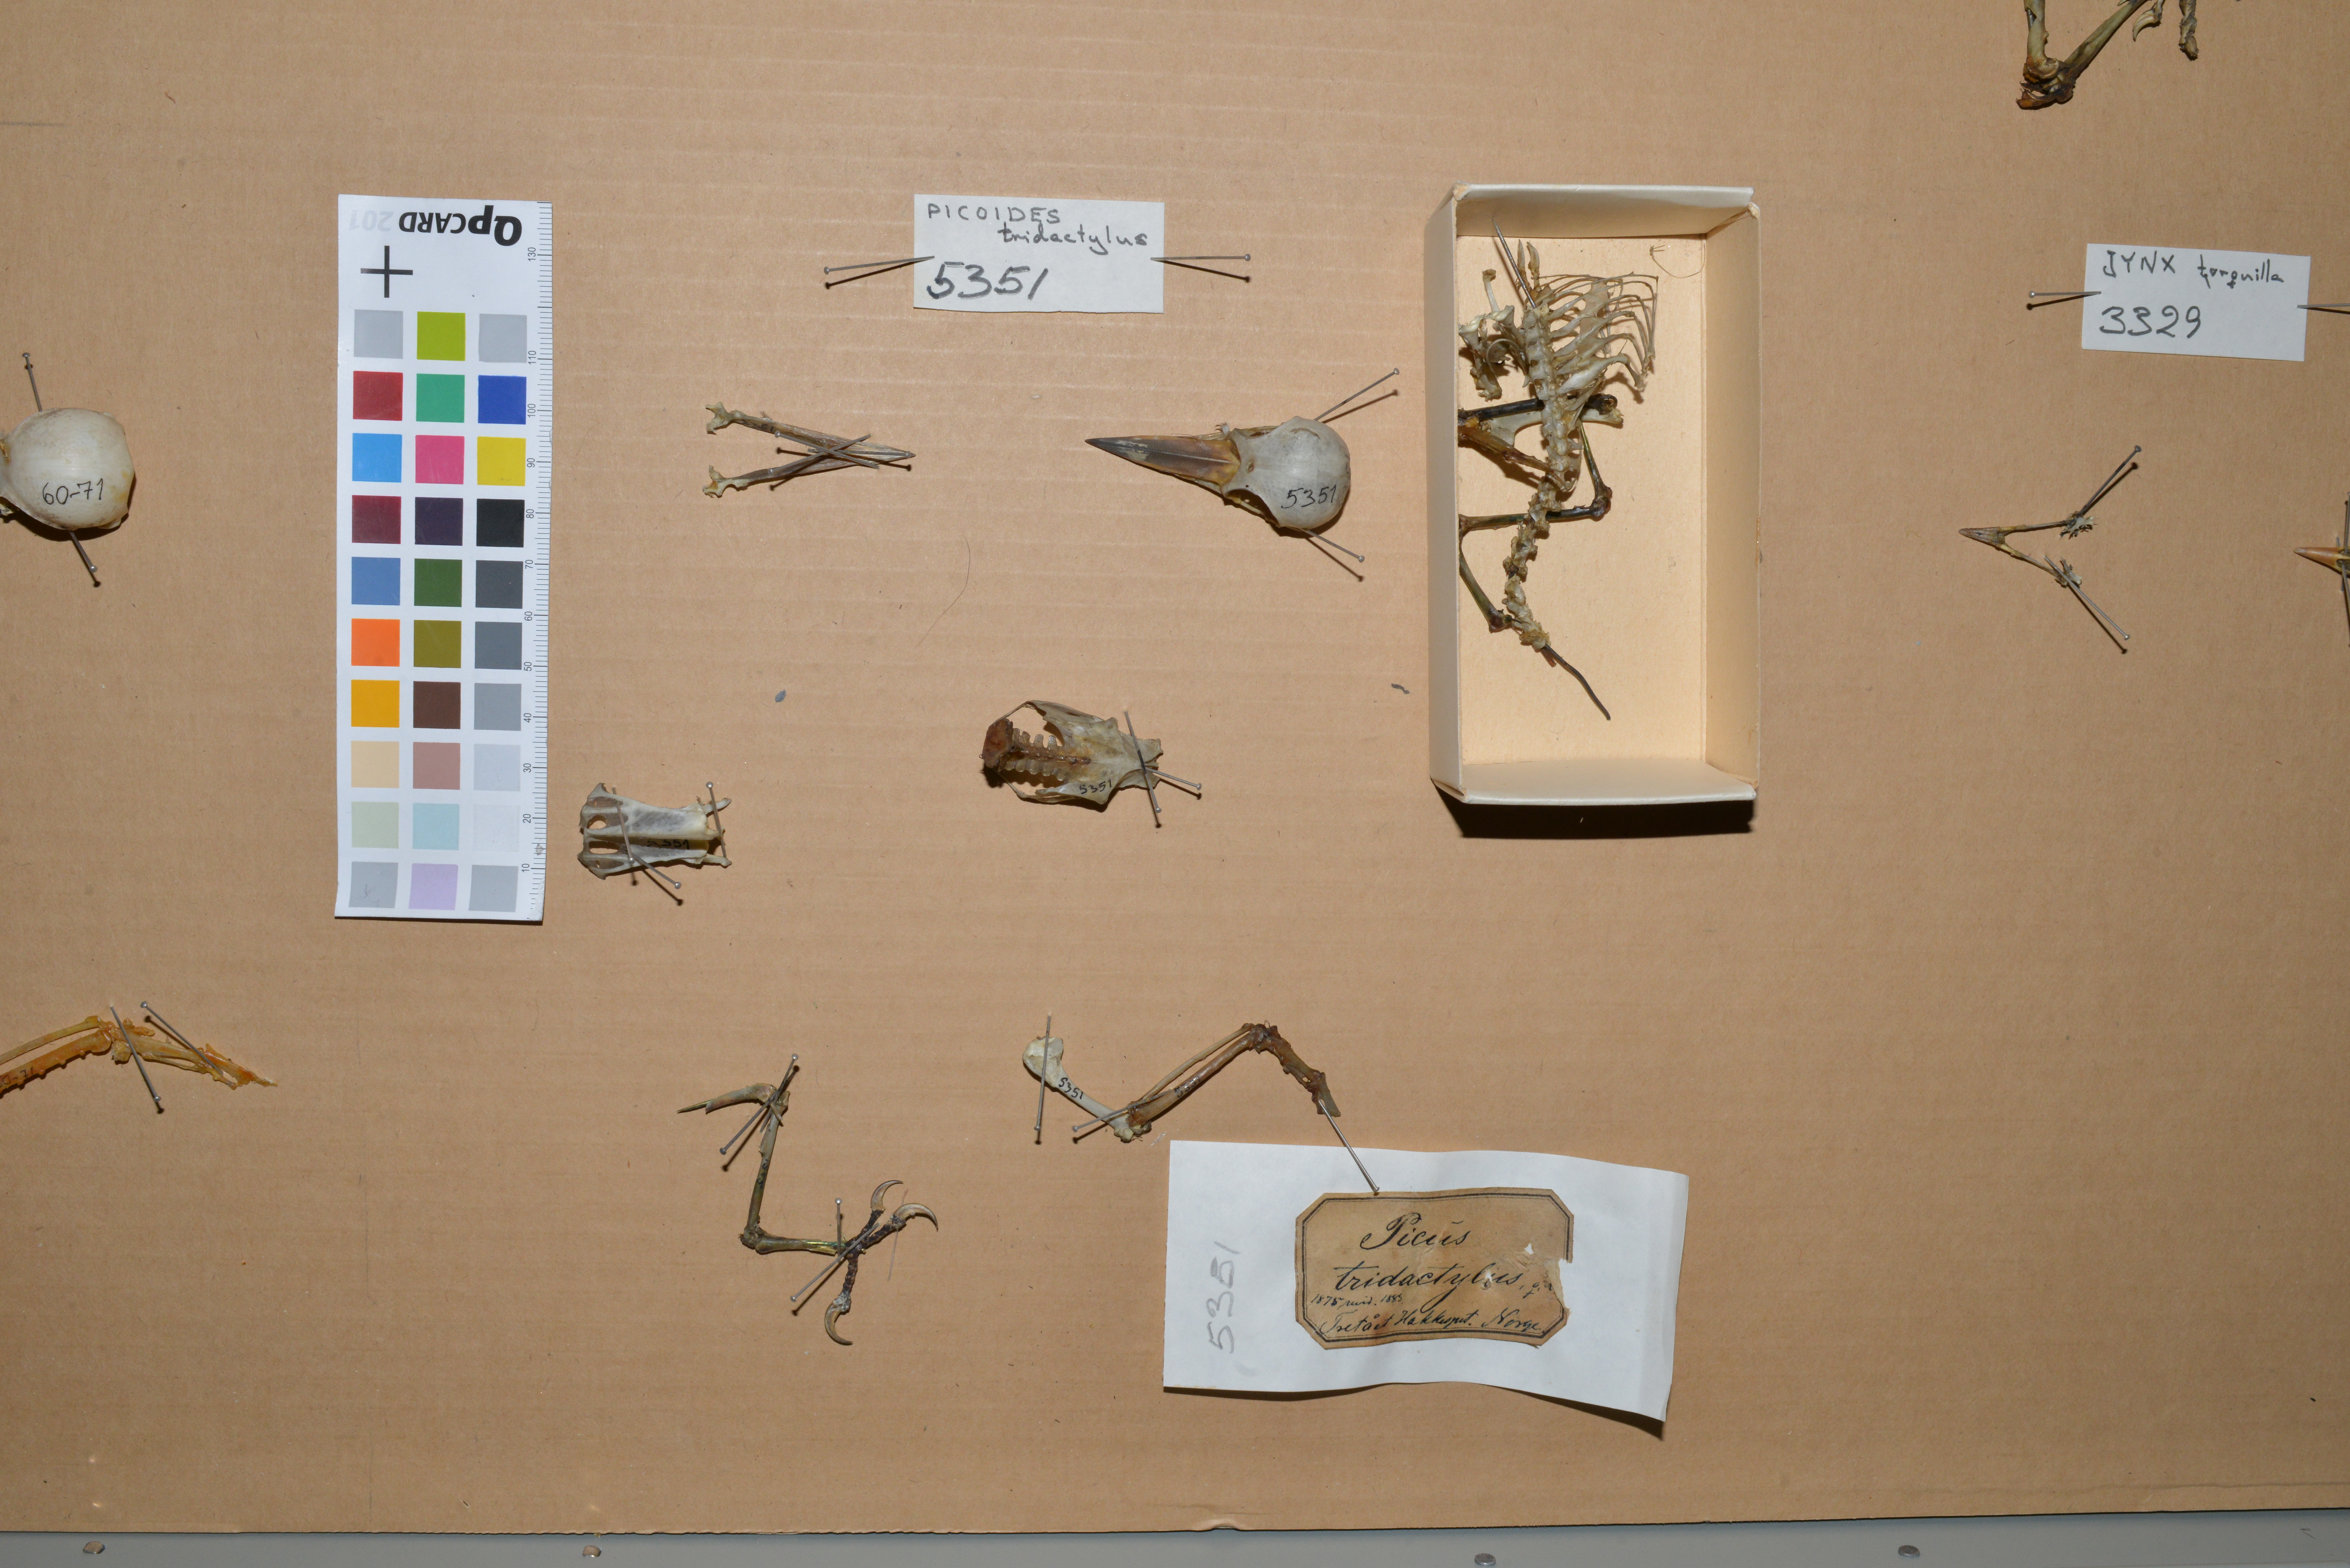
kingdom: Animalia
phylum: Chordata
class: Aves
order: Piciformes
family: Picidae
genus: Picoides
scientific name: Picoides tridactylus
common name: Eurasian three-toed woodpecker
